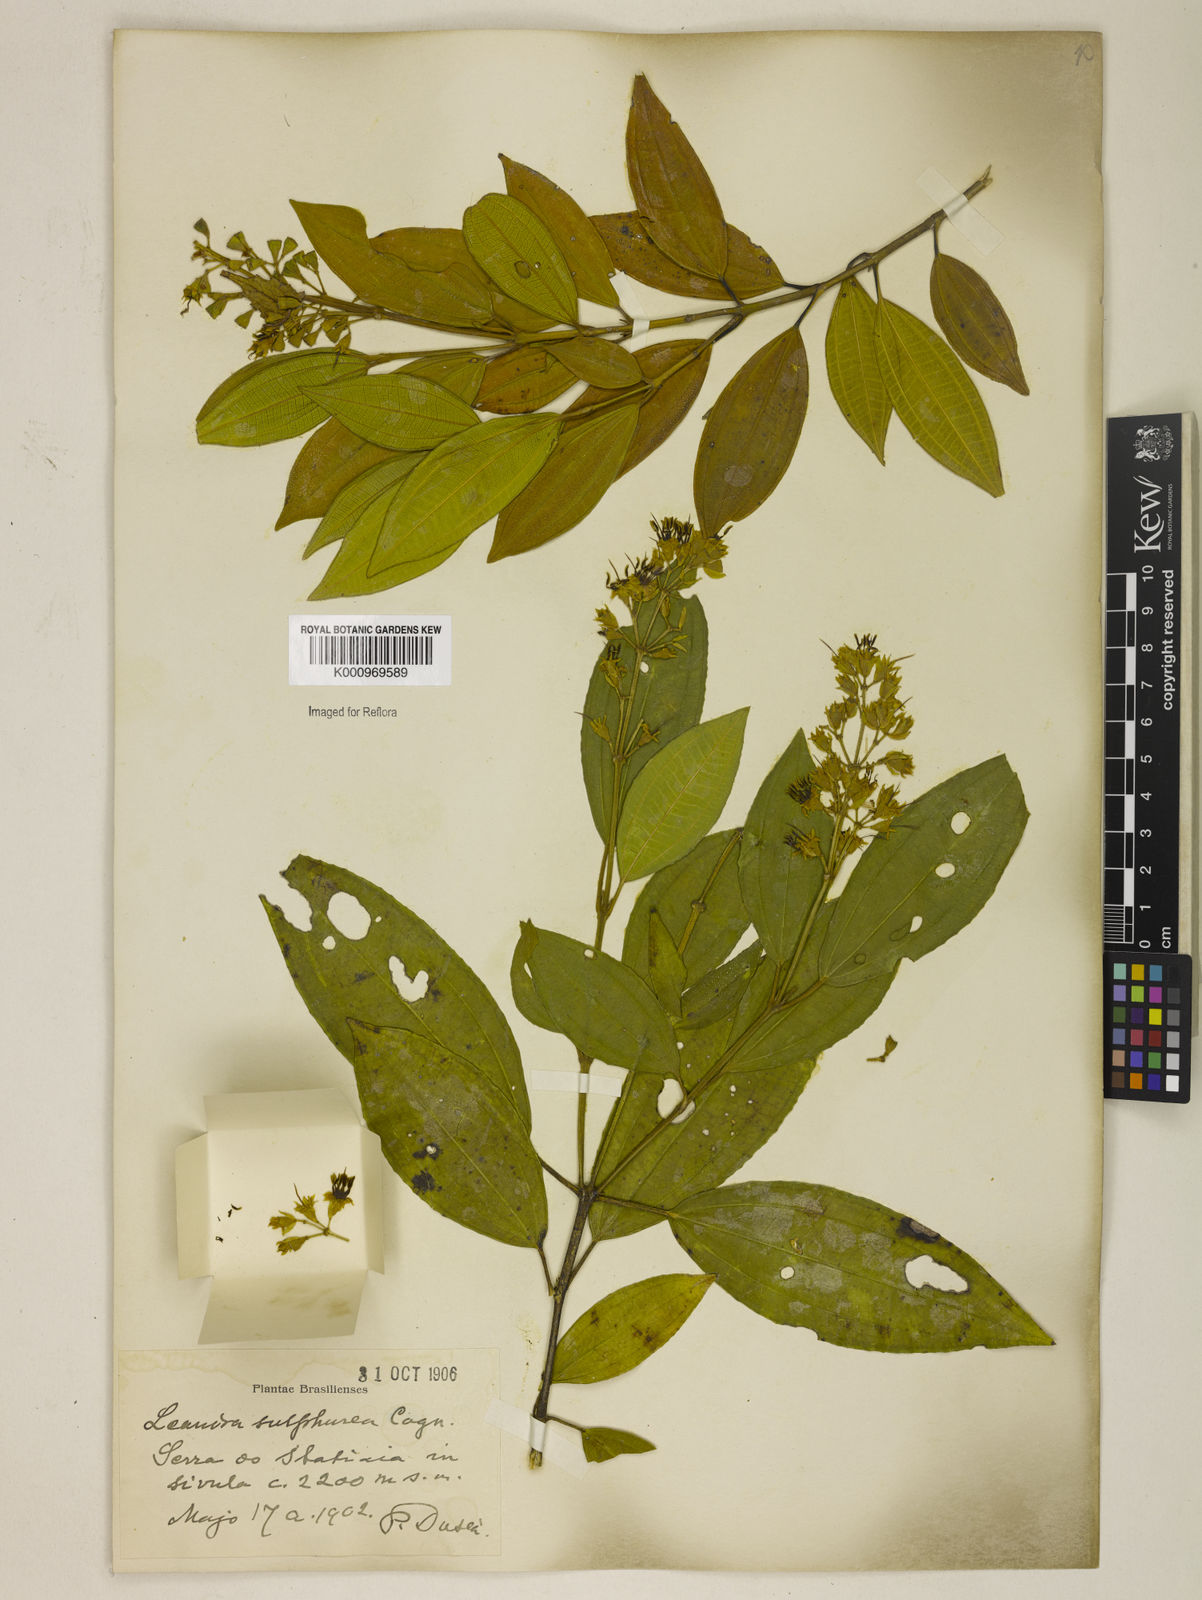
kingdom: Plantae
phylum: Tracheophyta
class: Magnoliopsida
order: Myrtales
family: Melastomataceae
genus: Miconia
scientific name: Miconia sulfurea
